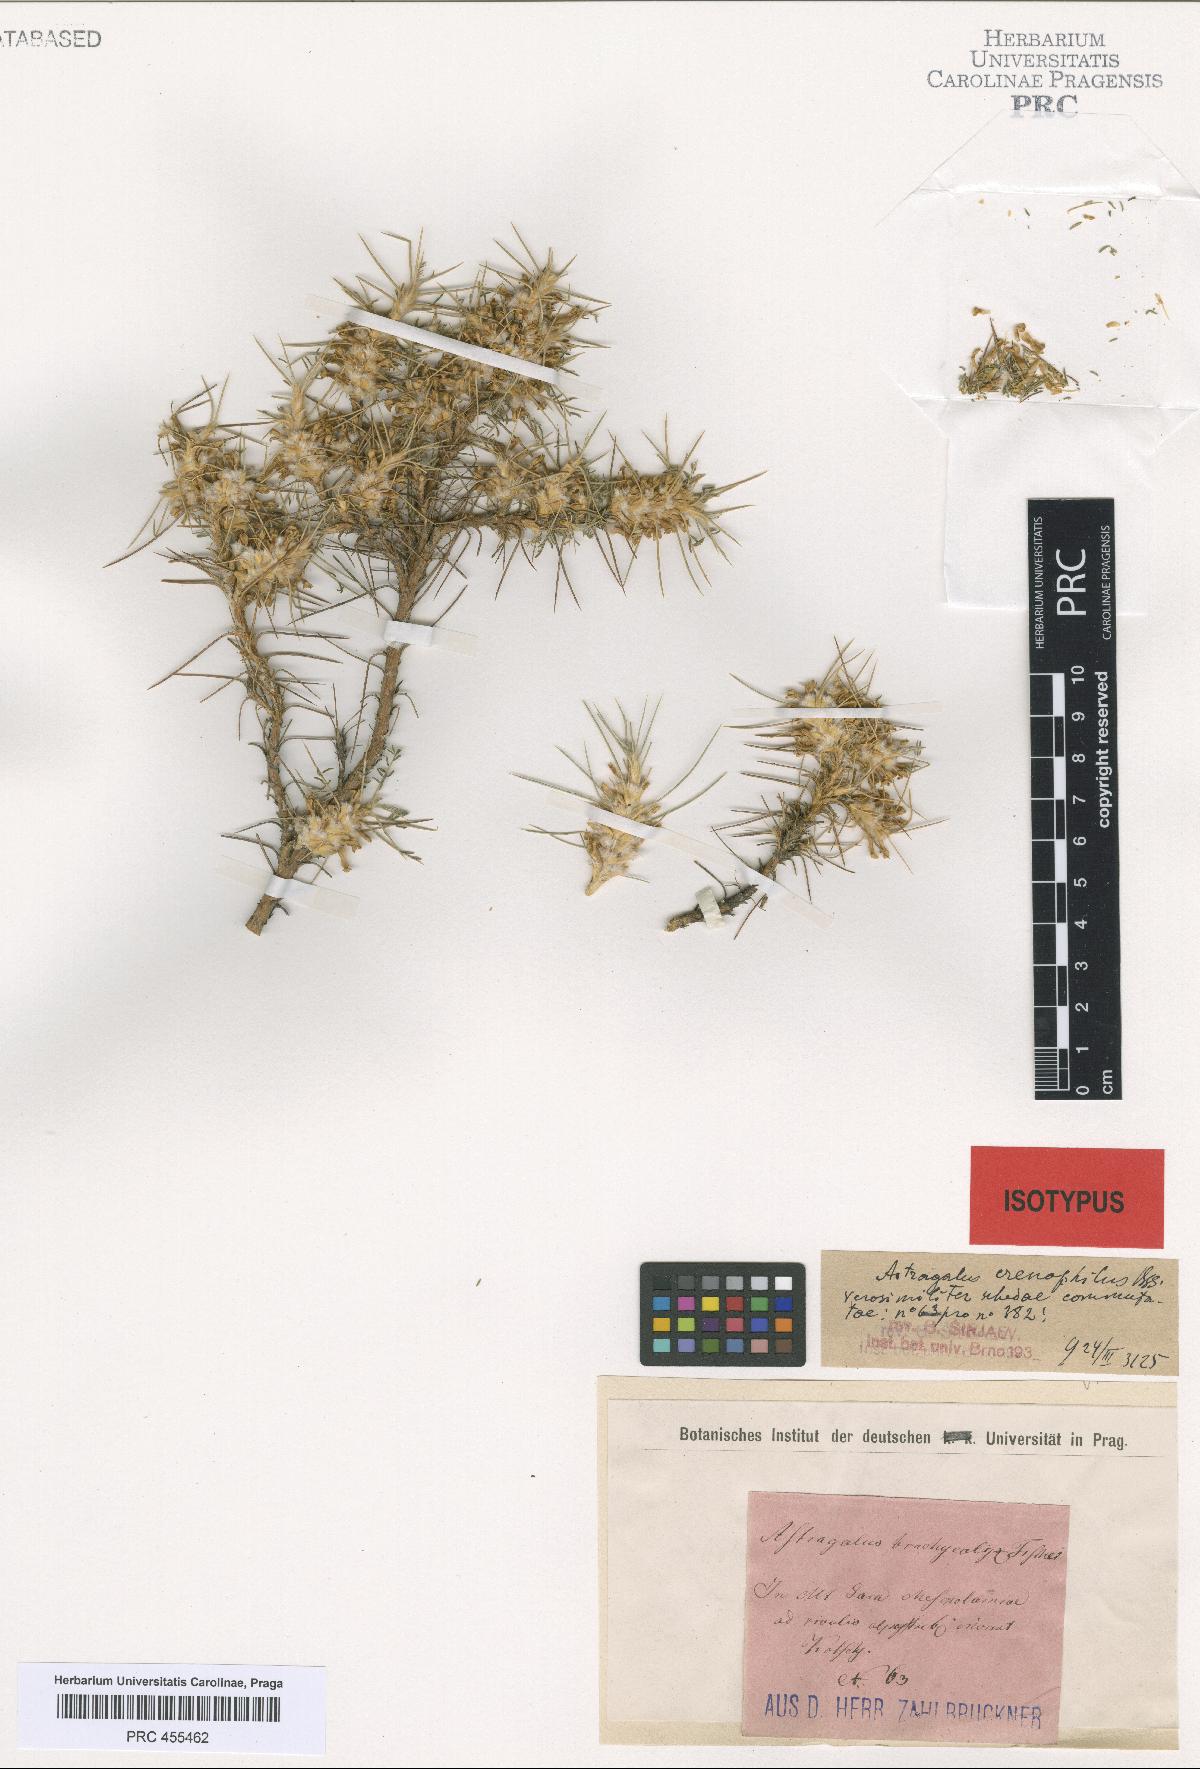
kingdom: Plantae
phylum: Tracheophyta
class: Magnoliopsida
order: Fabales
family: Fabaceae
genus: Astragalus
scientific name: Astragalus caspicus
